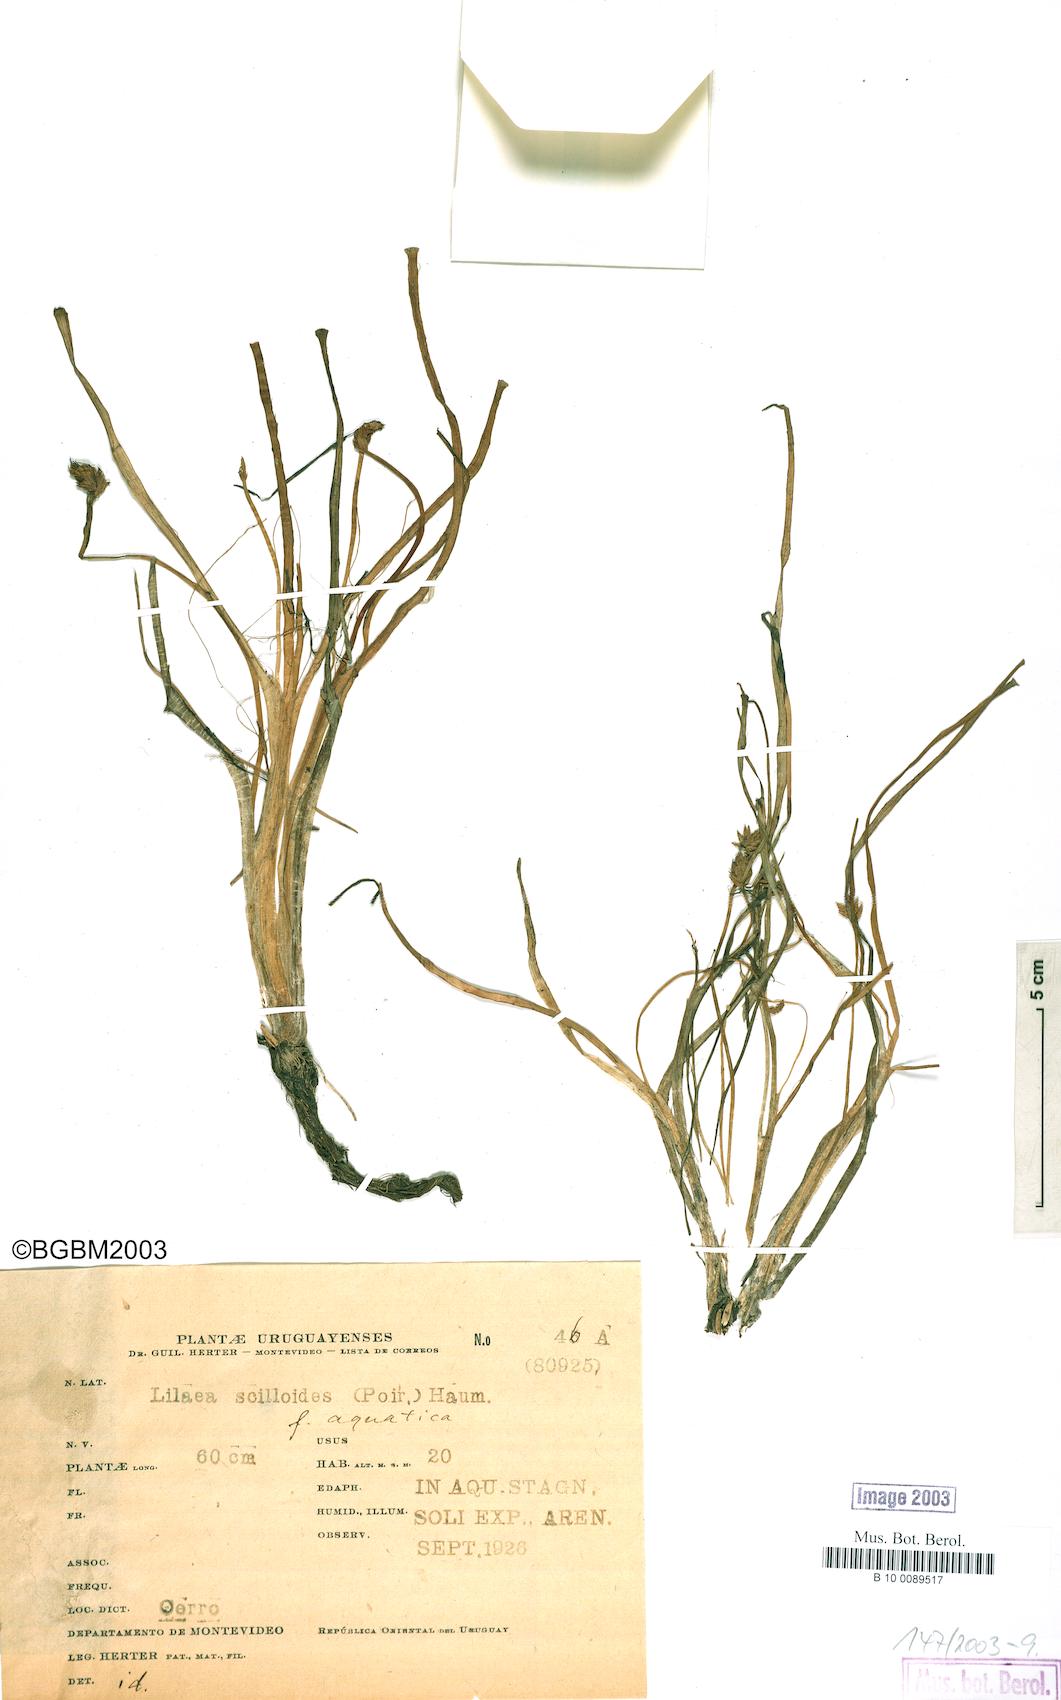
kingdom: Plantae
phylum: Tracheophyta
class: Liliopsida
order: Alismatales
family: Juncaginaceae
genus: Triglochin
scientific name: Triglochin scilloides
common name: Awl-leaved lilaea
